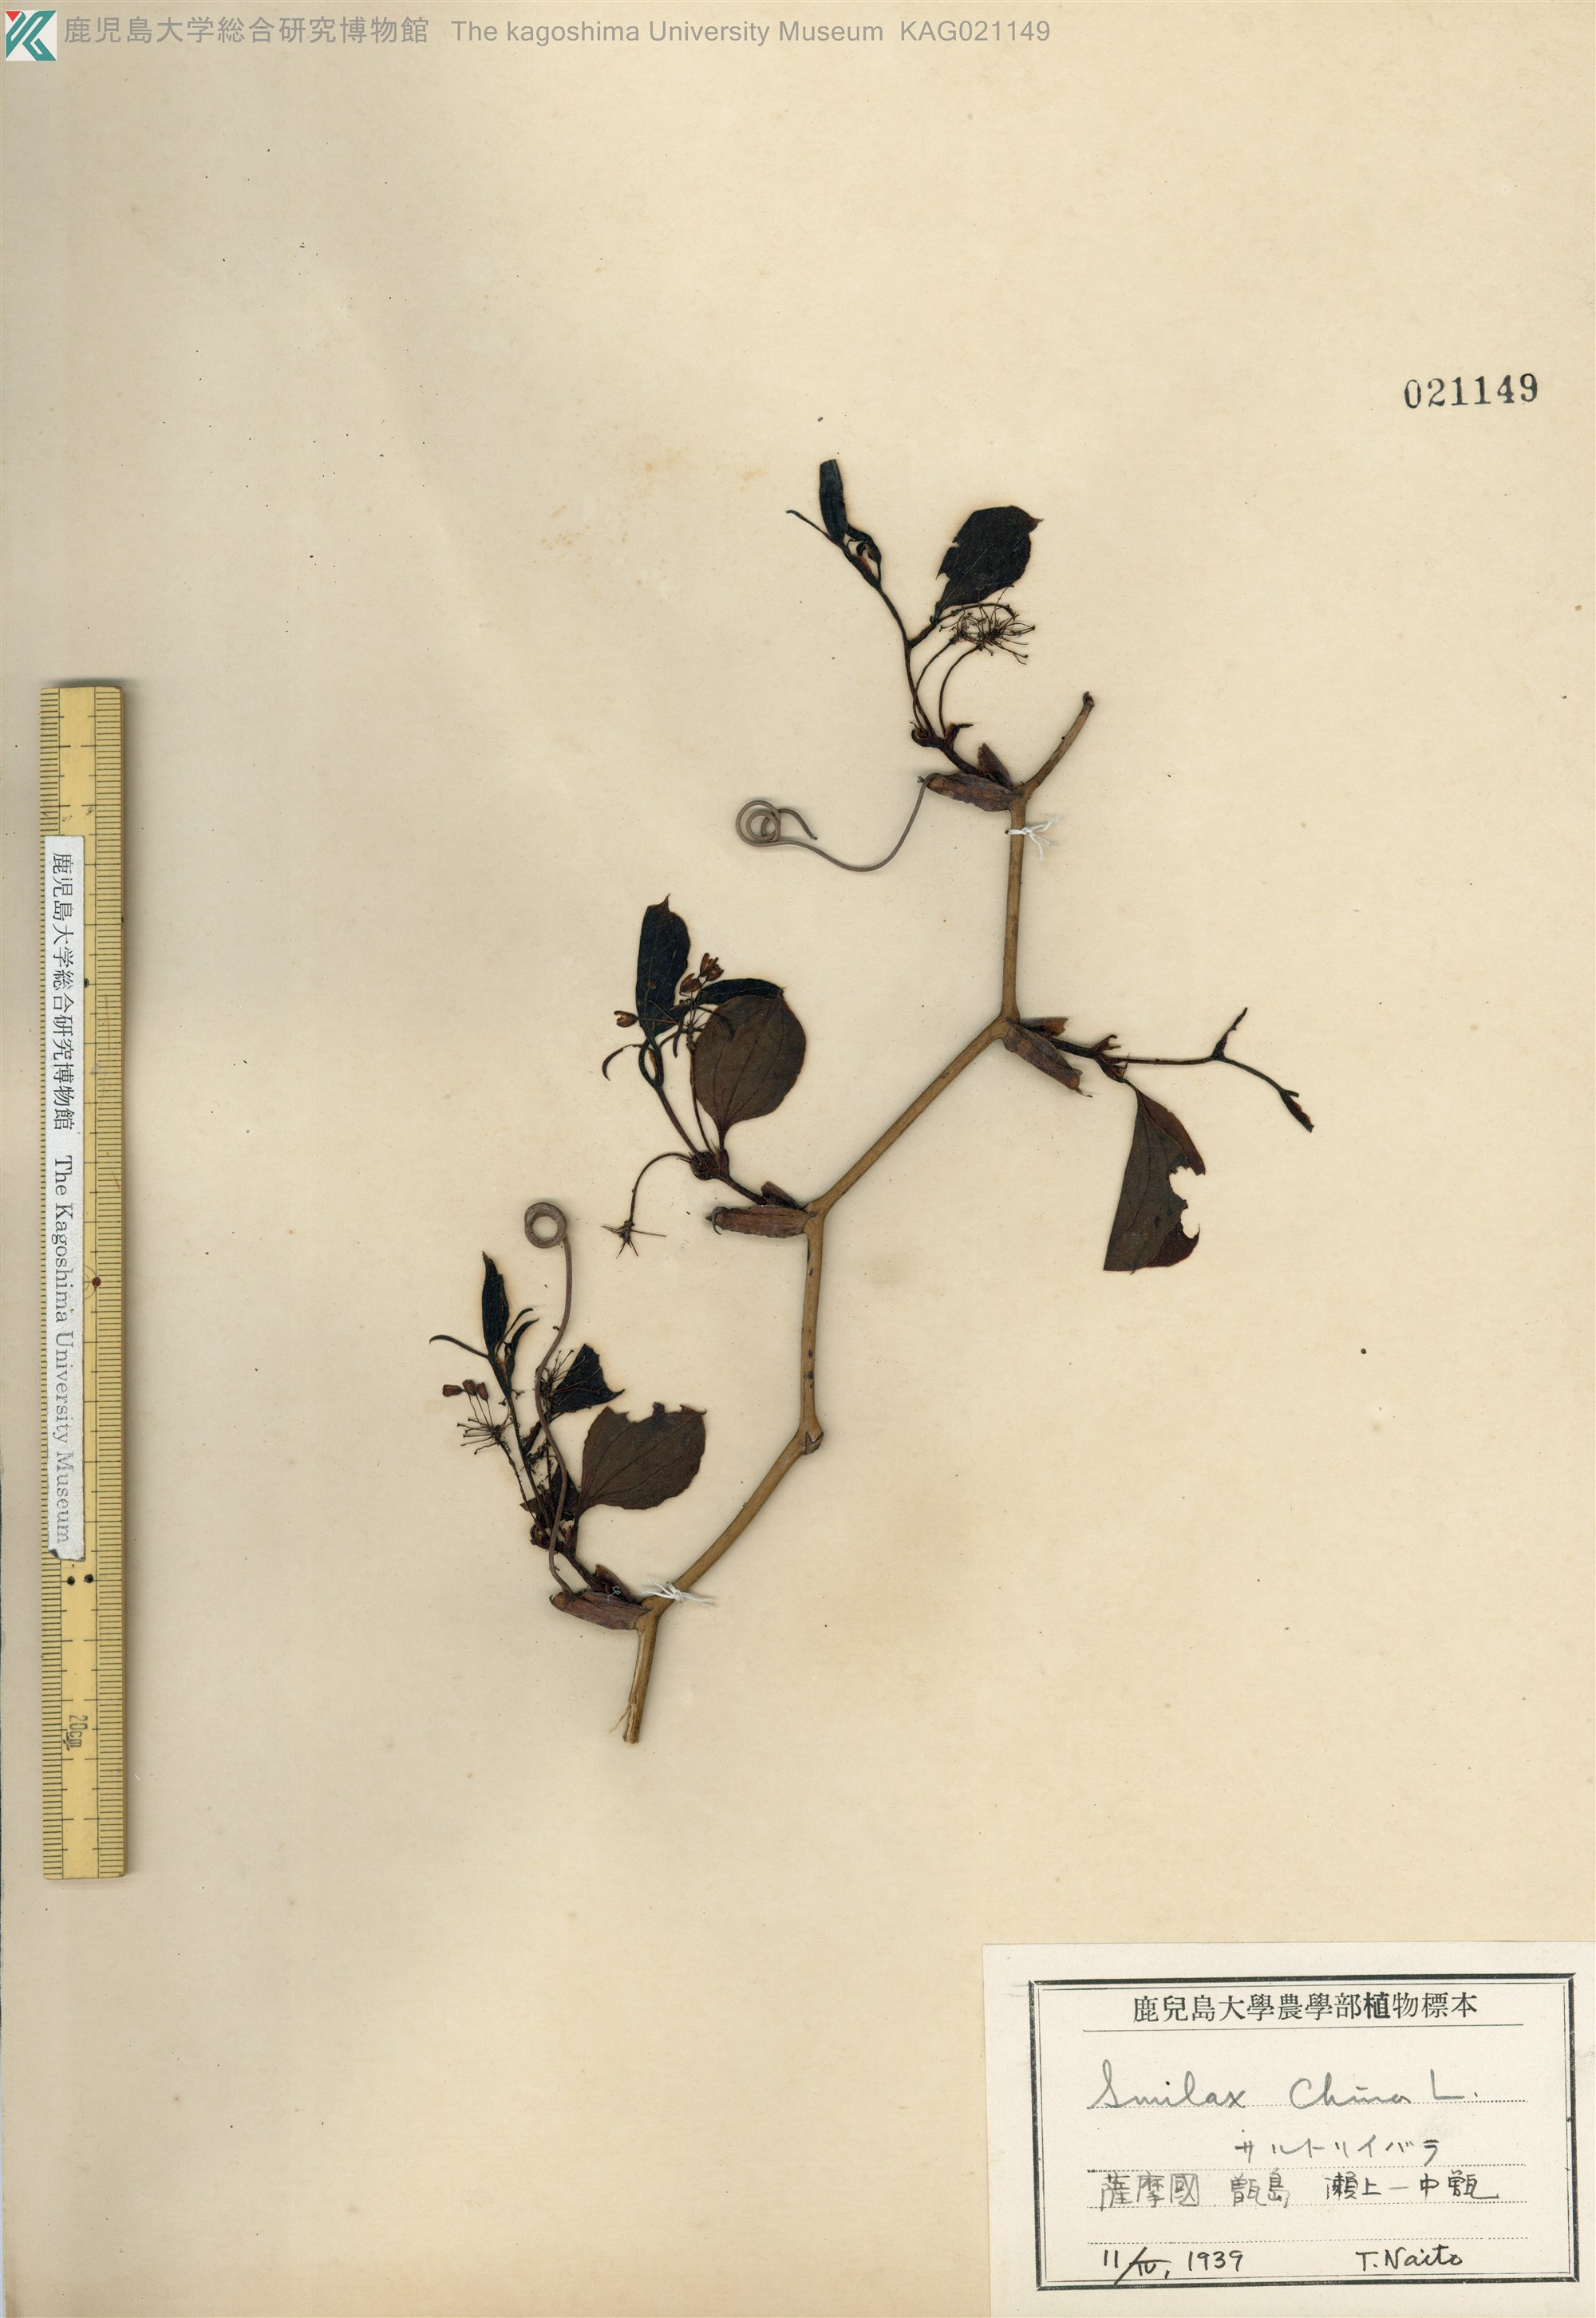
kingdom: Plantae
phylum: Tracheophyta
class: Liliopsida
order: Liliales
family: Smilacaceae
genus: Smilax
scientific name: Smilax china
